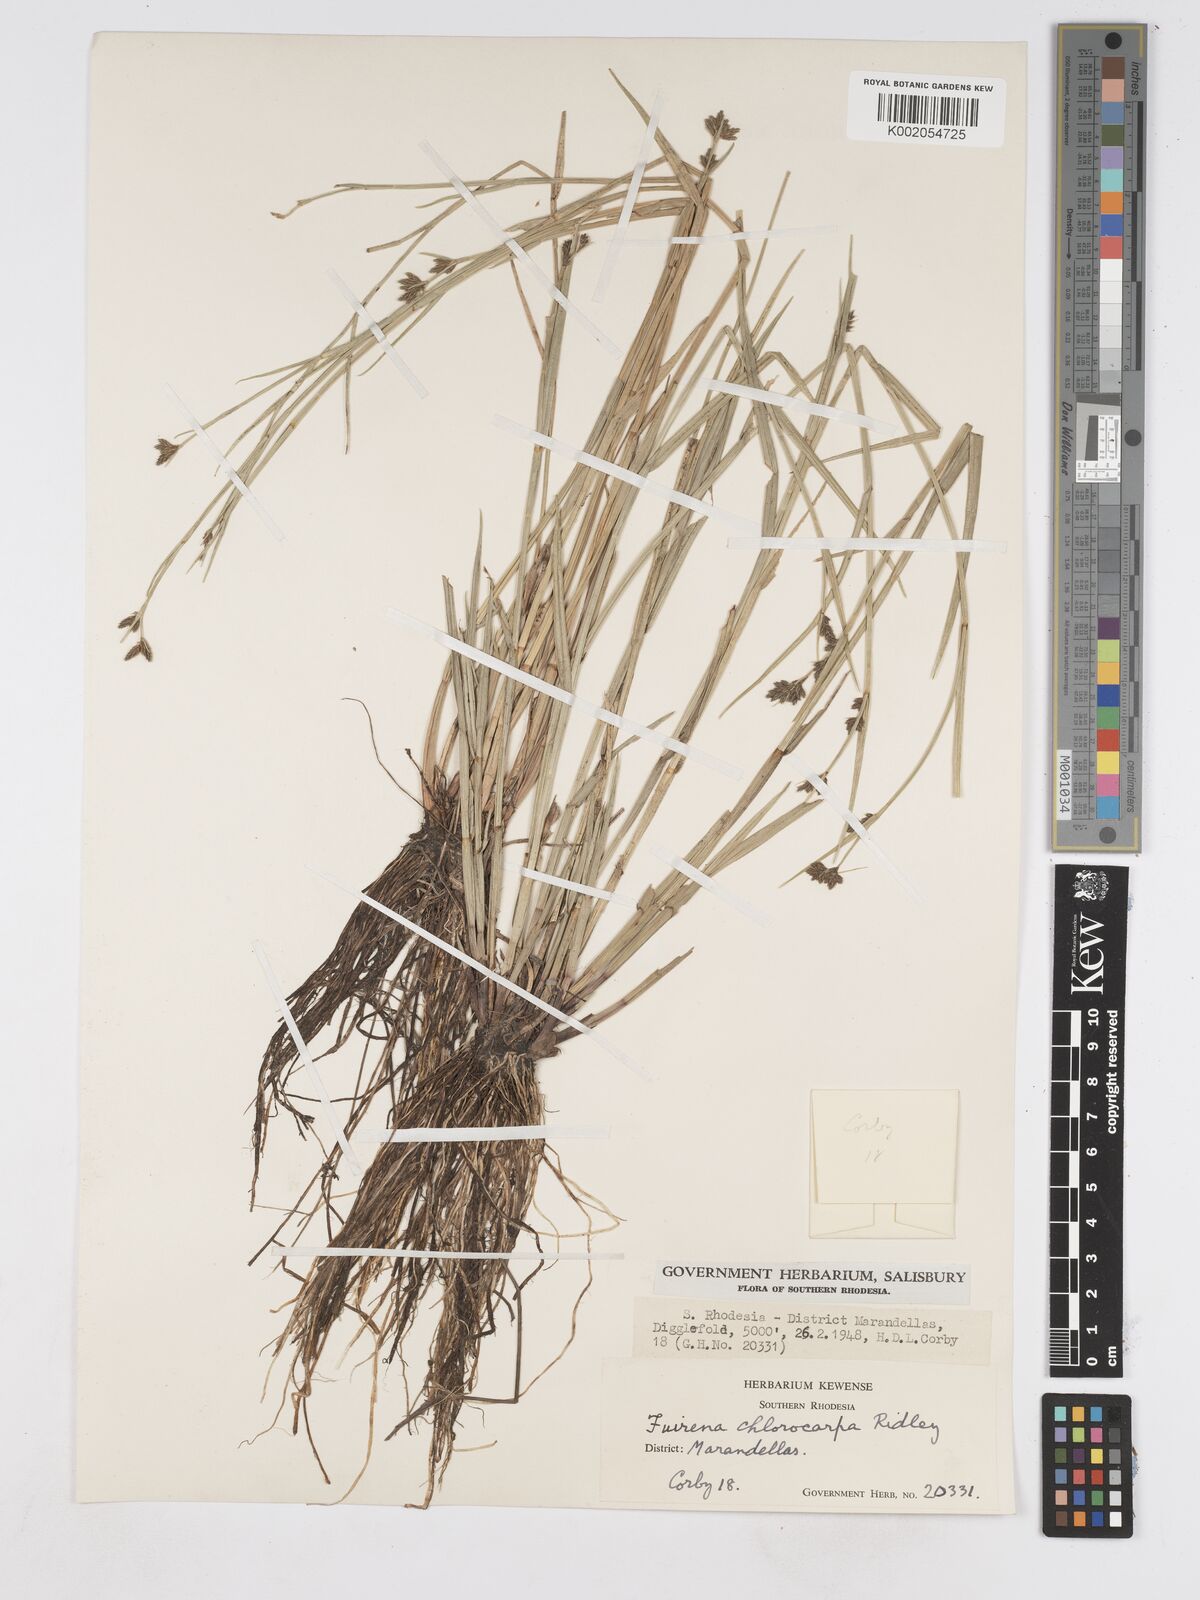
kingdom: Plantae
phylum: Tracheophyta
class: Liliopsida
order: Poales
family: Cyperaceae
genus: Fuirena
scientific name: Fuirena stricta
